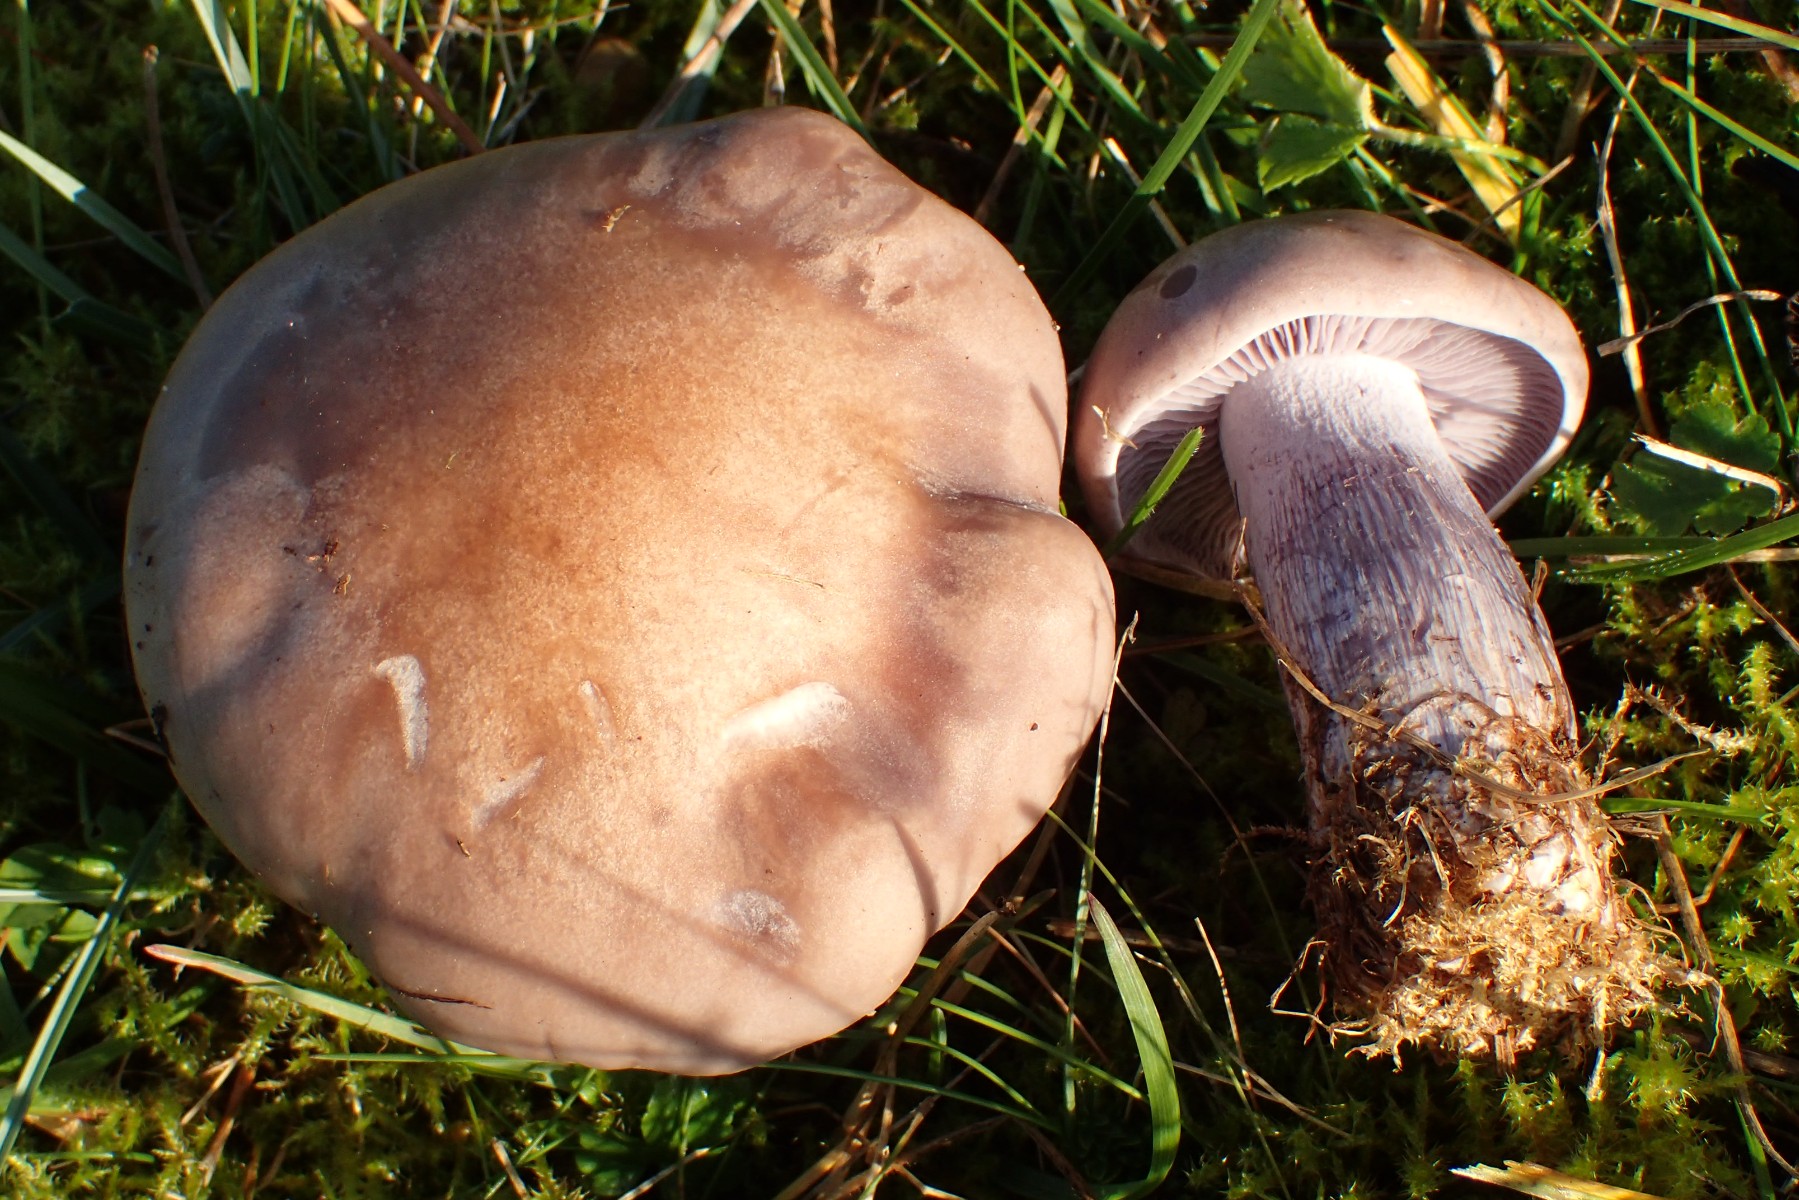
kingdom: Fungi
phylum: Basidiomycota
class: Agaricomycetes
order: Agaricales
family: Tricholomataceae
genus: Lepista
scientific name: Lepista nuda
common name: violet hekseringshat
